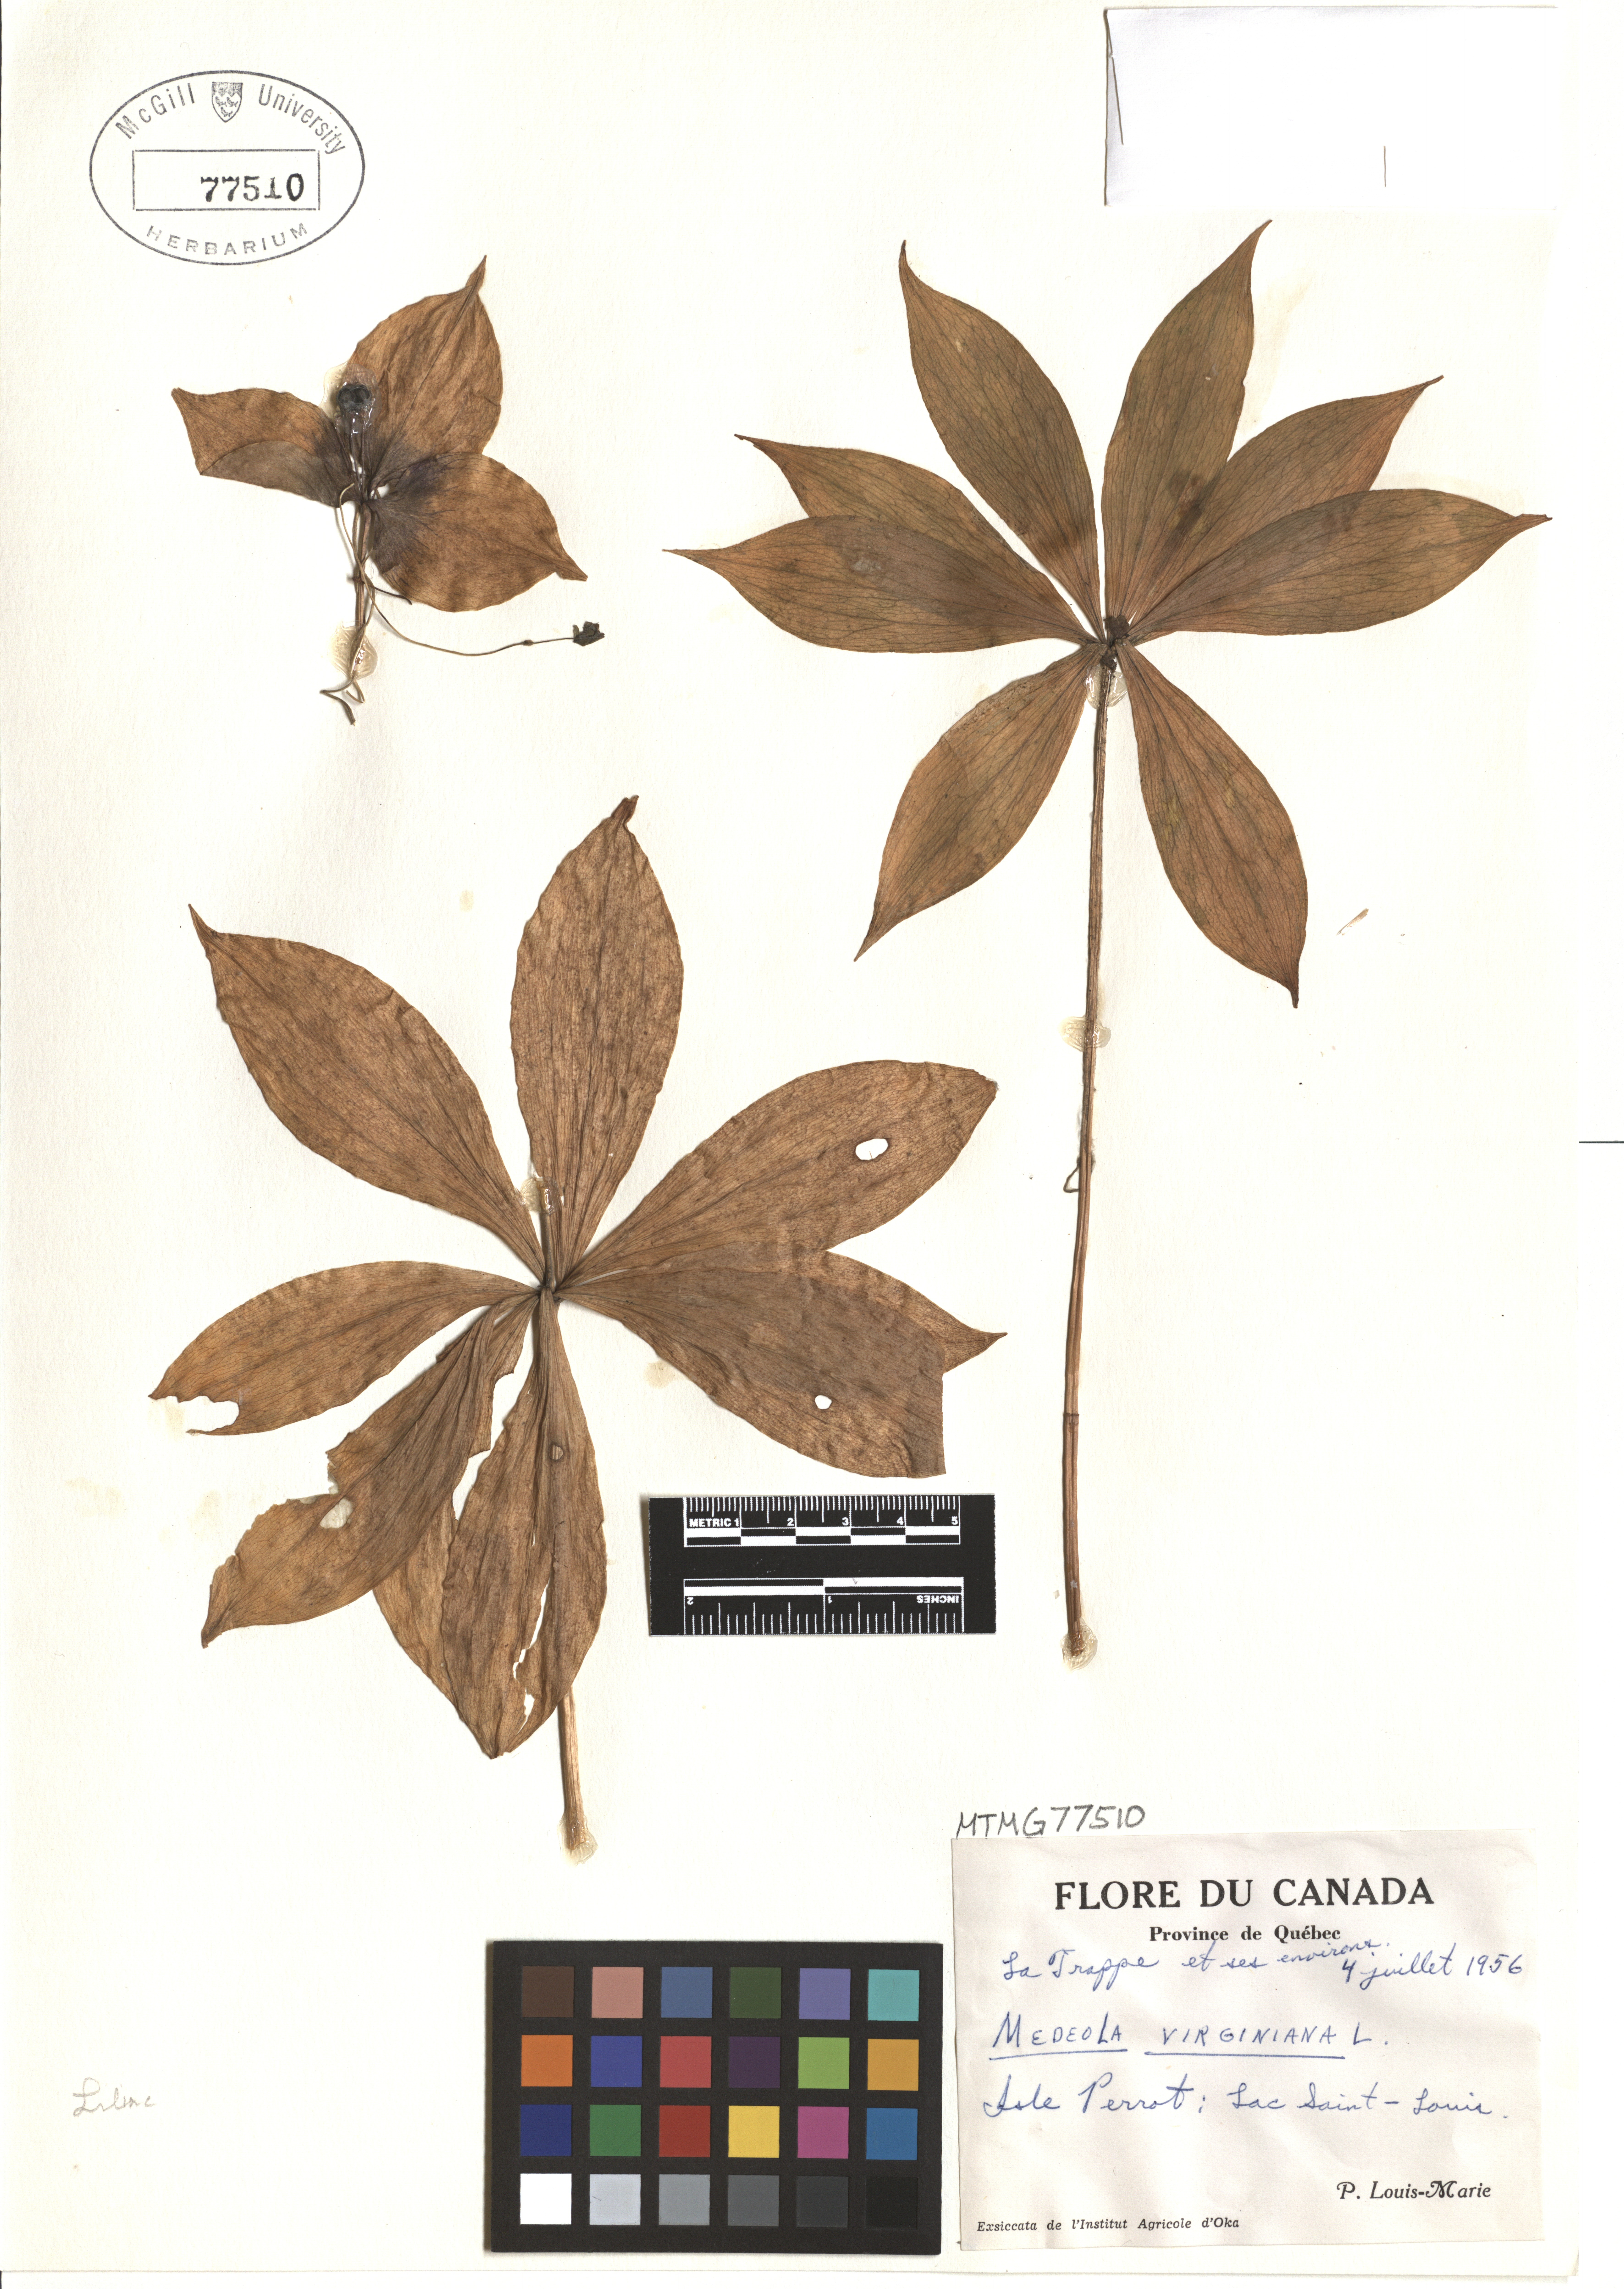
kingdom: Plantae
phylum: Tracheophyta
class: Liliopsida
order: Liliales
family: Liliaceae
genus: Medeola
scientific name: Medeola virginiana
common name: Indian cucumber-root
